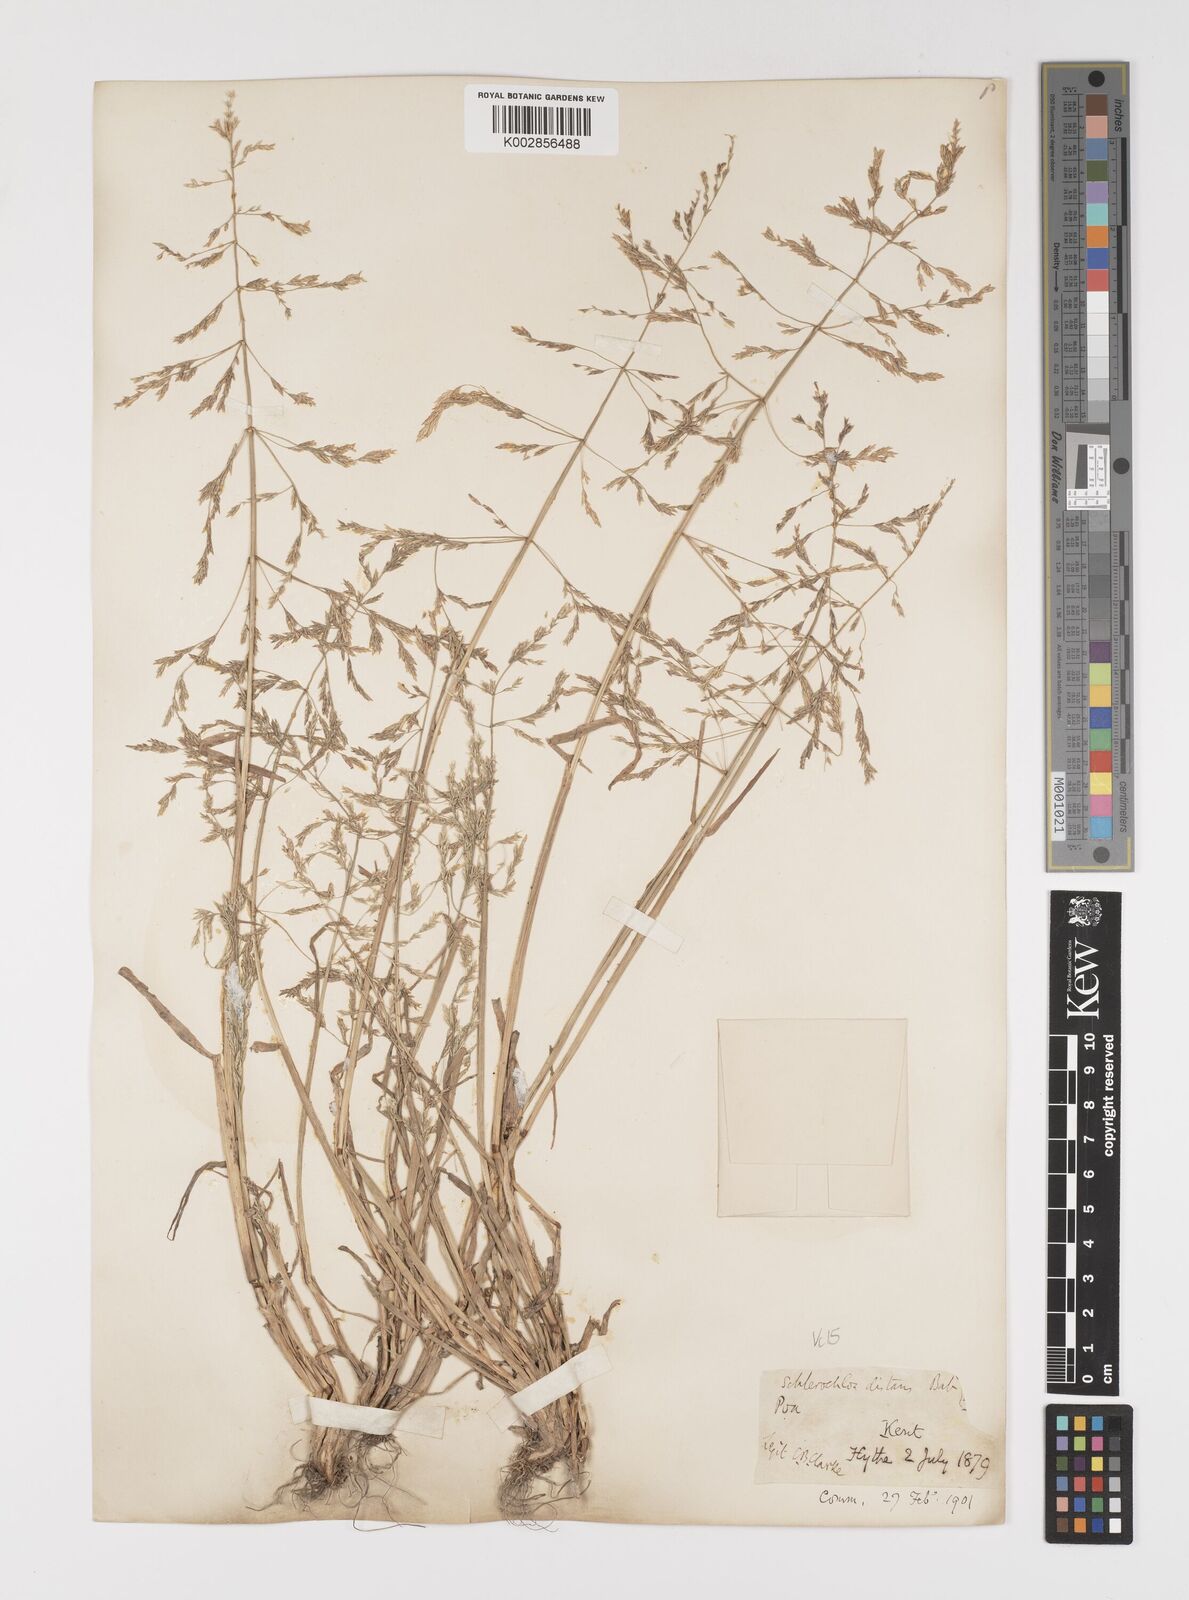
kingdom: Plantae
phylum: Tracheophyta
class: Liliopsida
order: Poales
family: Poaceae
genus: Puccinellia
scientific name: Puccinellia distans
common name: Weeping alkaligrass
